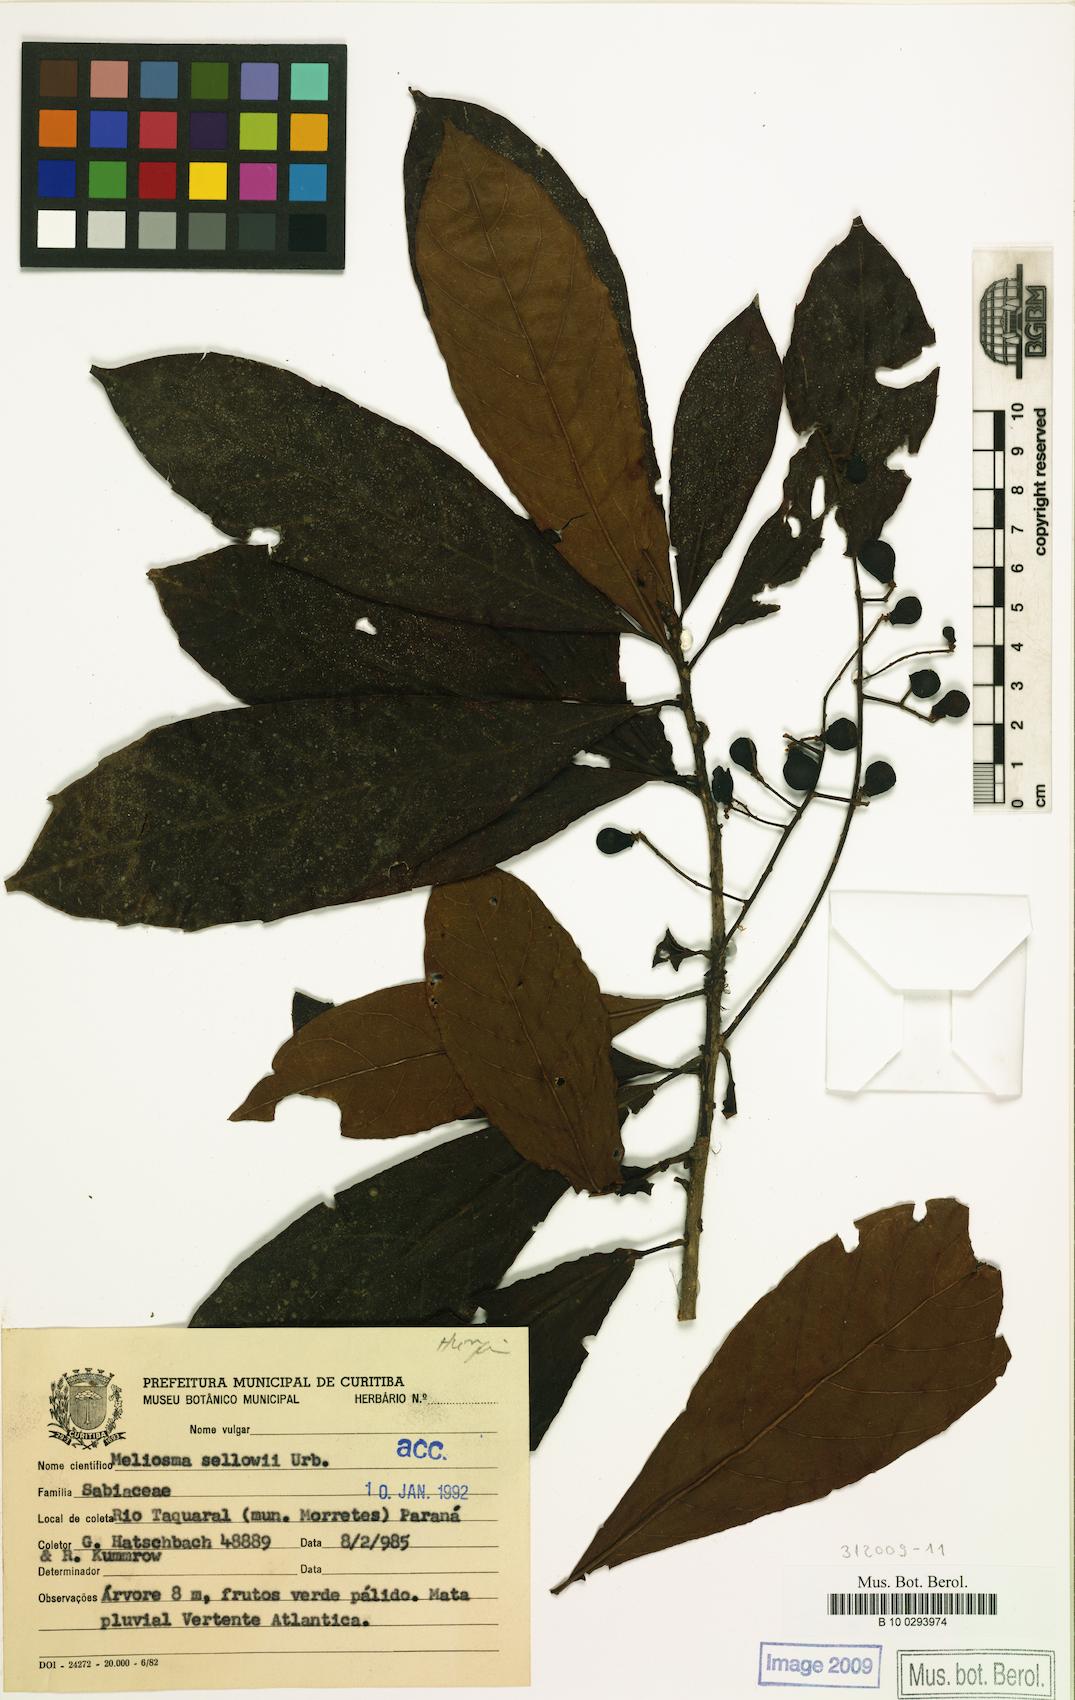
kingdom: Plantae
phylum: Tracheophyta
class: Magnoliopsida
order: Proteales
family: Sabiaceae
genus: Meliosma
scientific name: Meliosma sellowii
